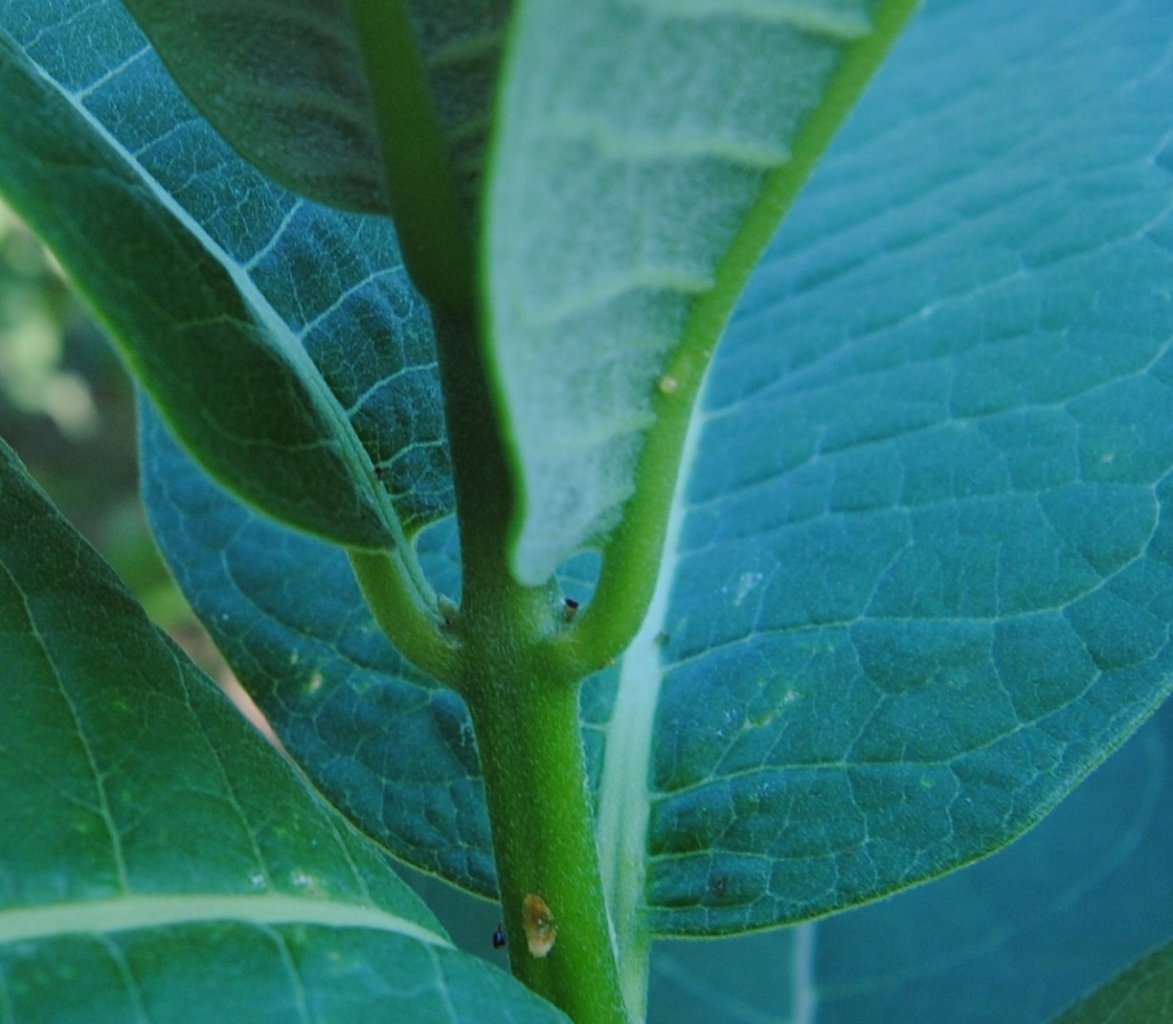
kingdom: Animalia
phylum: Arthropoda
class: Insecta
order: Lepidoptera
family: Nymphalidae
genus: Danaus
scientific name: Danaus plexippus
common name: Monarch
